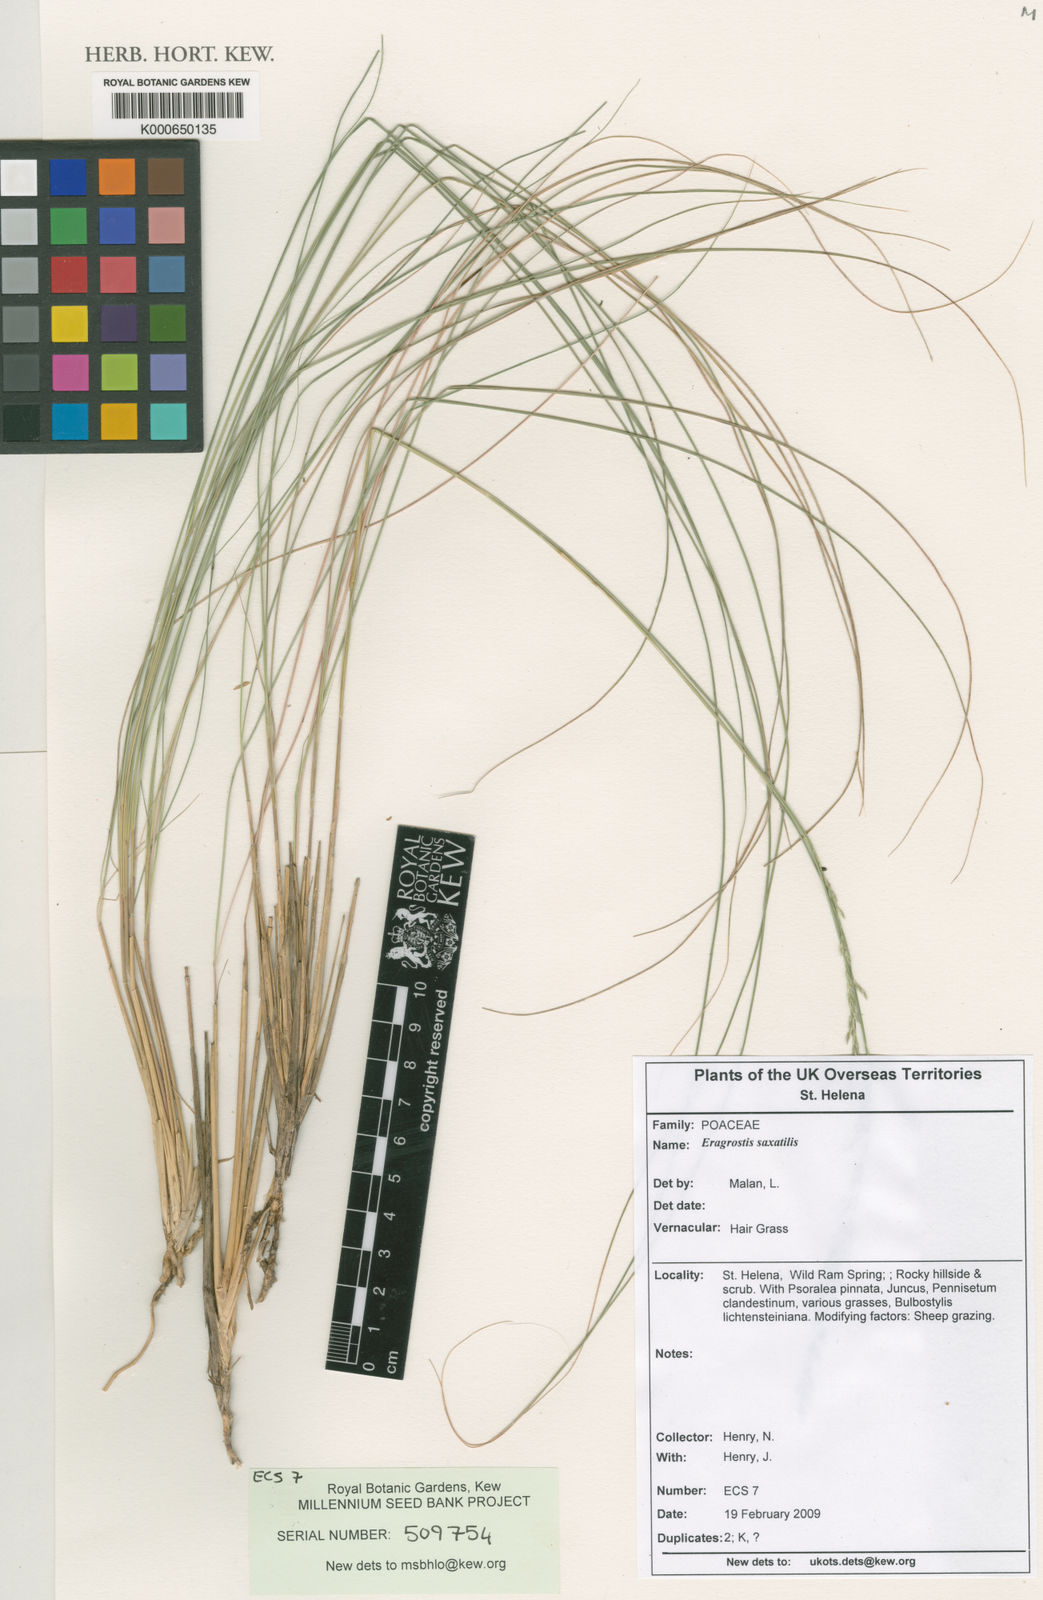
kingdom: Plantae
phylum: Tracheophyta
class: Liliopsida
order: Poales
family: Poaceae
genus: Eragrostis
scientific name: Eragrostis saxatilis
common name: Hair grass
